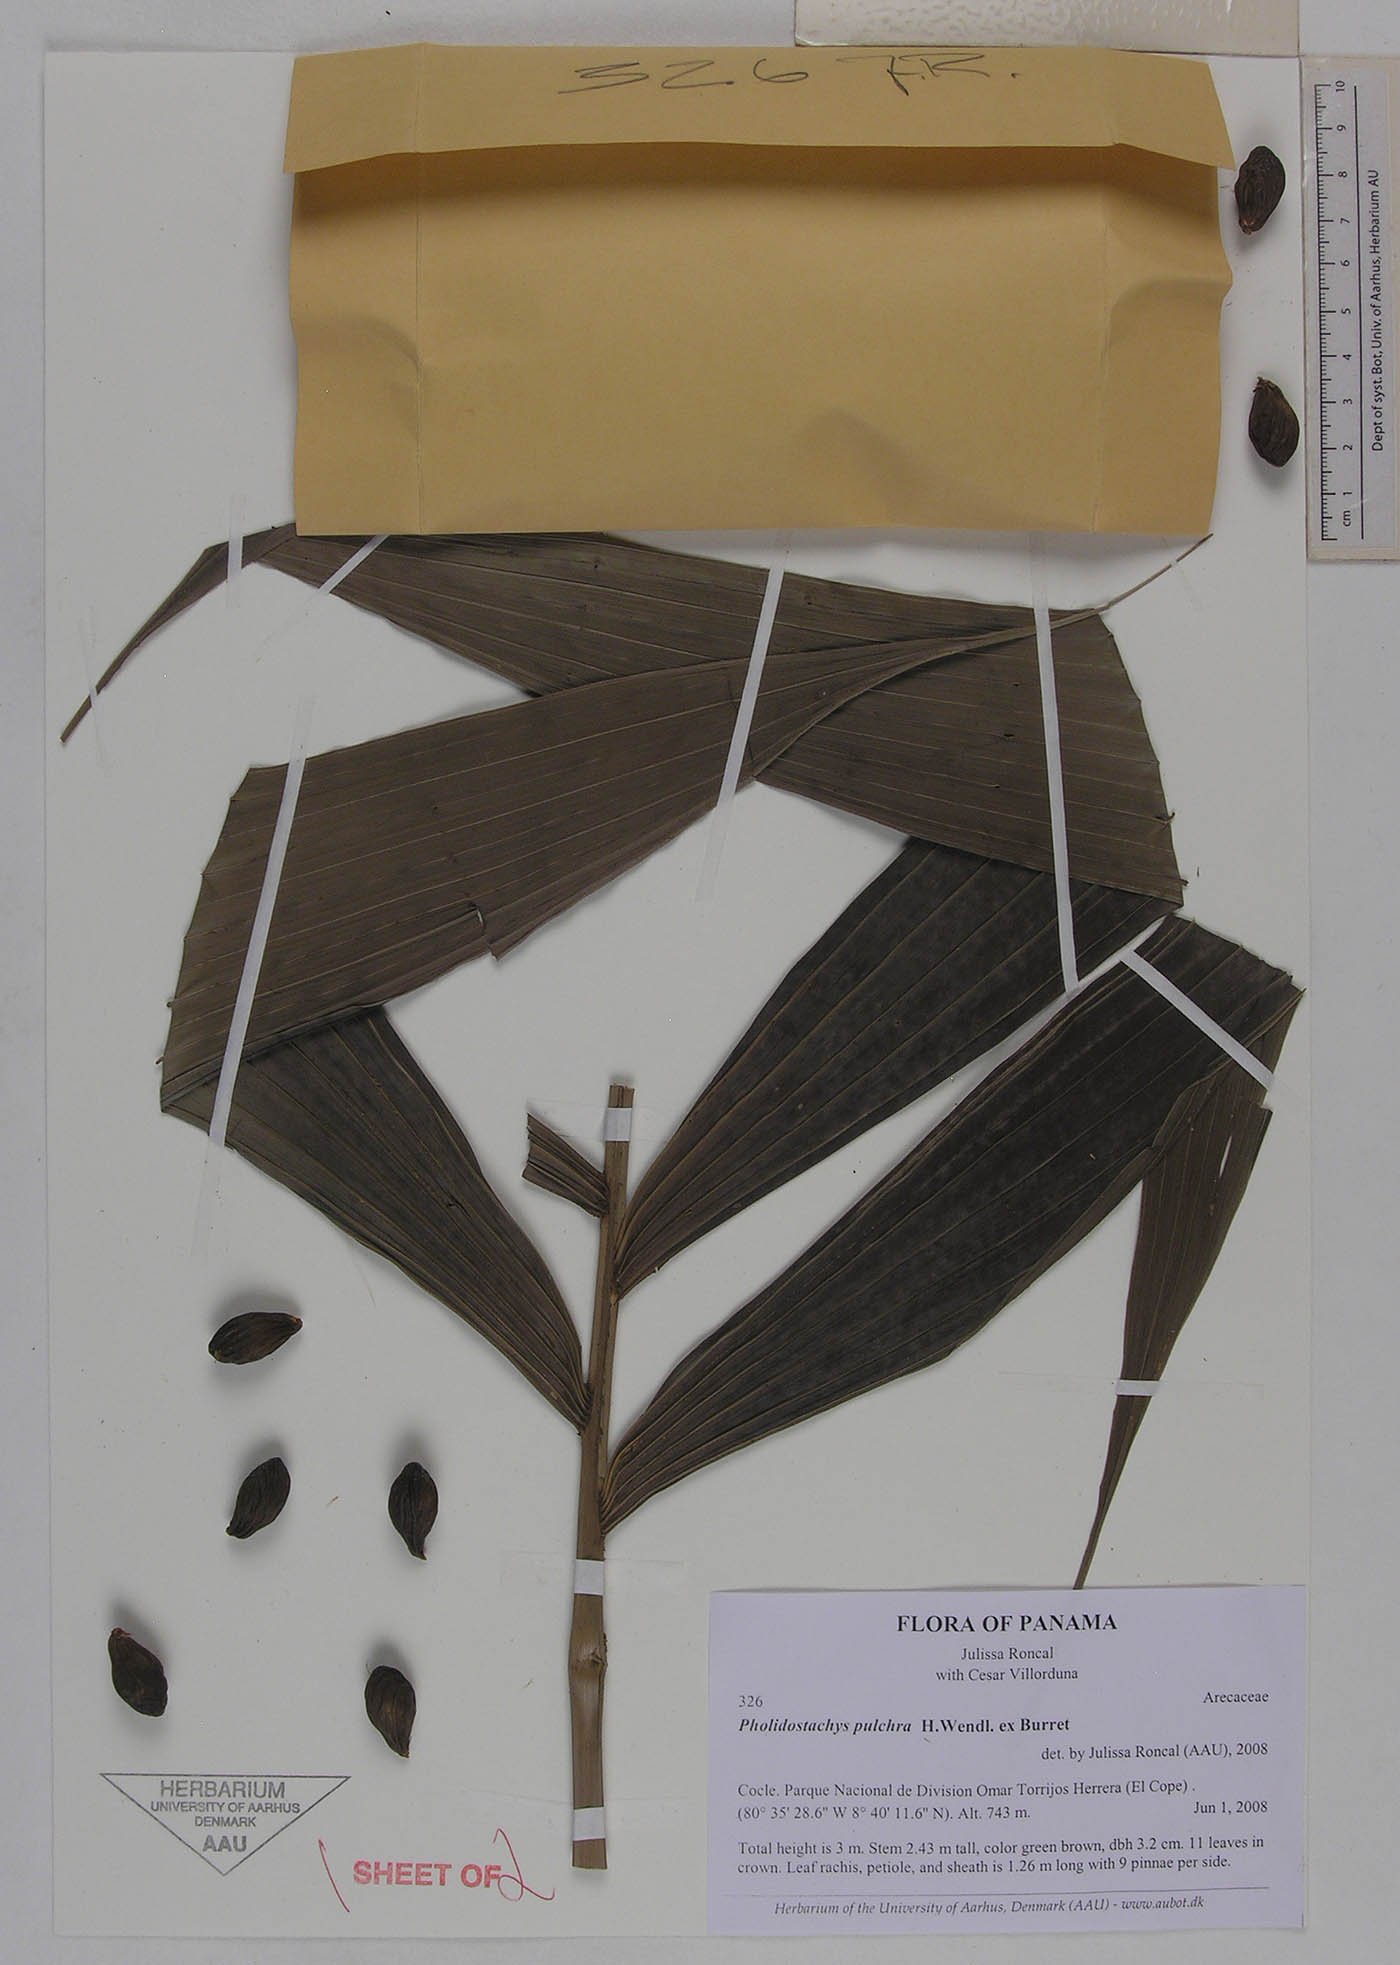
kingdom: Plantae
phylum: Tracheophyta
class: Liliopsida
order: Arecales
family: Arecaceae
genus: Pholidostachys
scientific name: Pholidostachys pulchra
